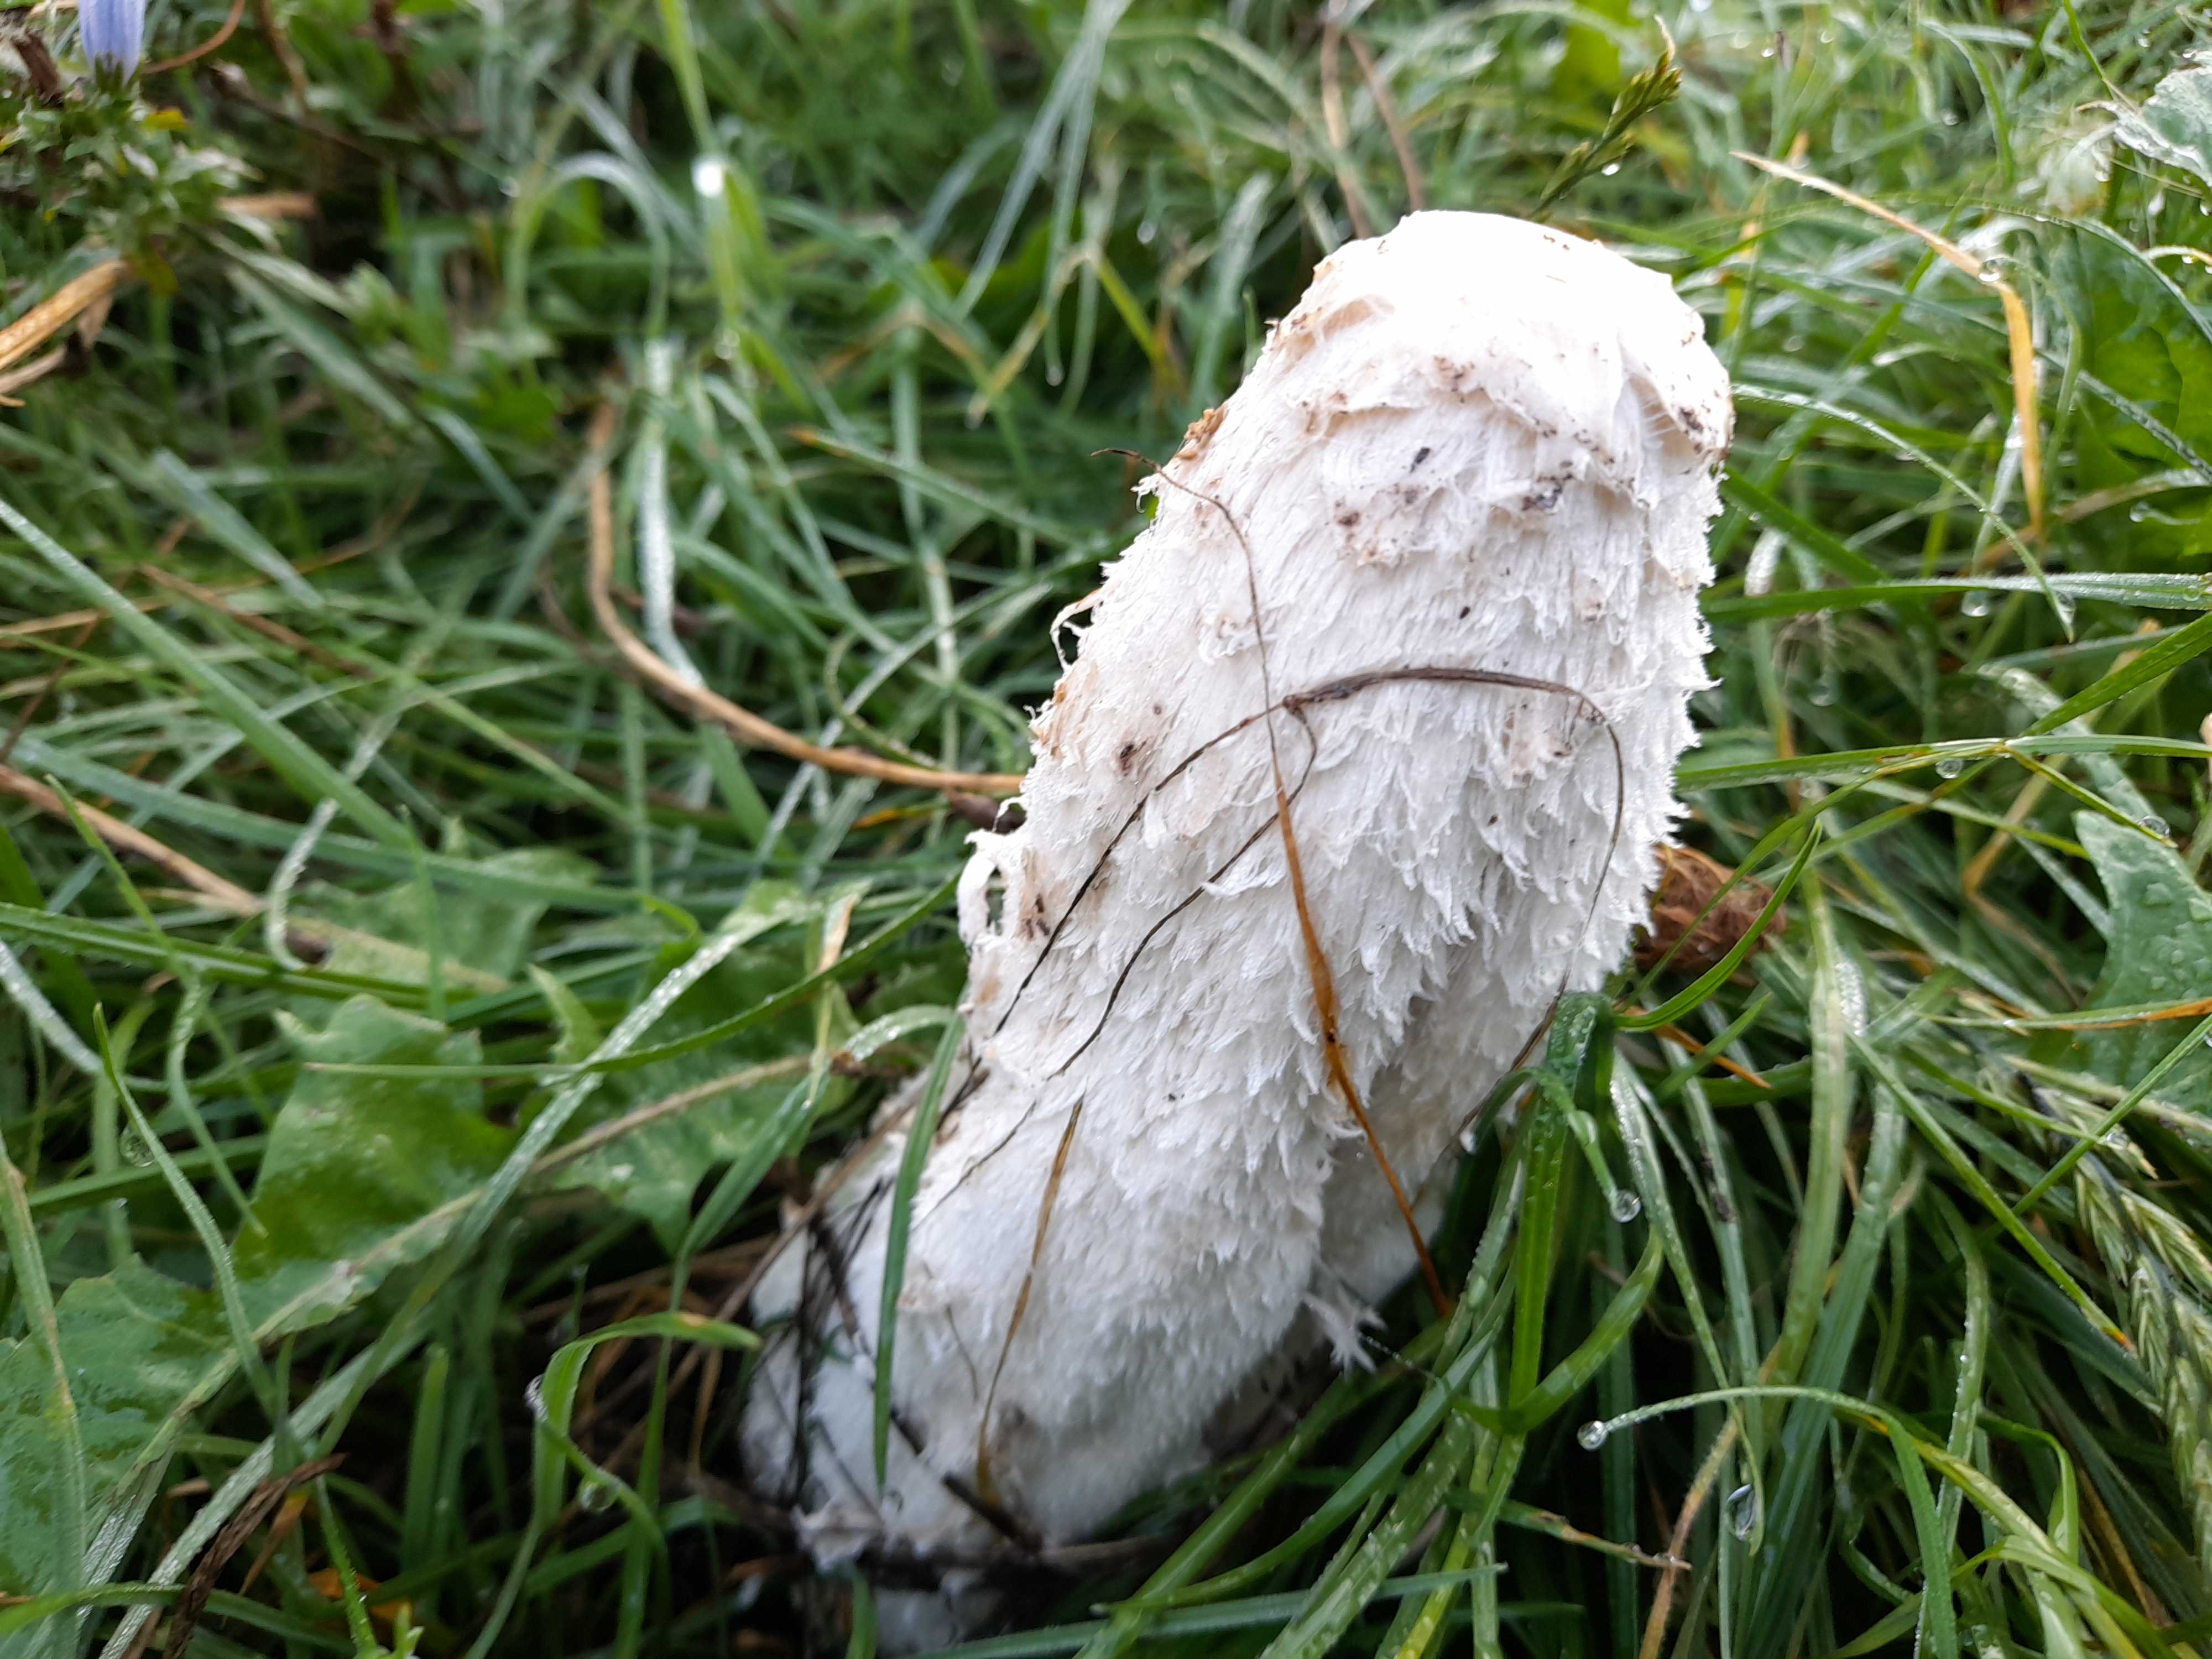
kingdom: Fungi
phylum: Basidiomycota
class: Agaricomycetes
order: Agaricales
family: Agaricaceae
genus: Coprinus
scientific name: Coprinus comatus
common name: stor parykhat
